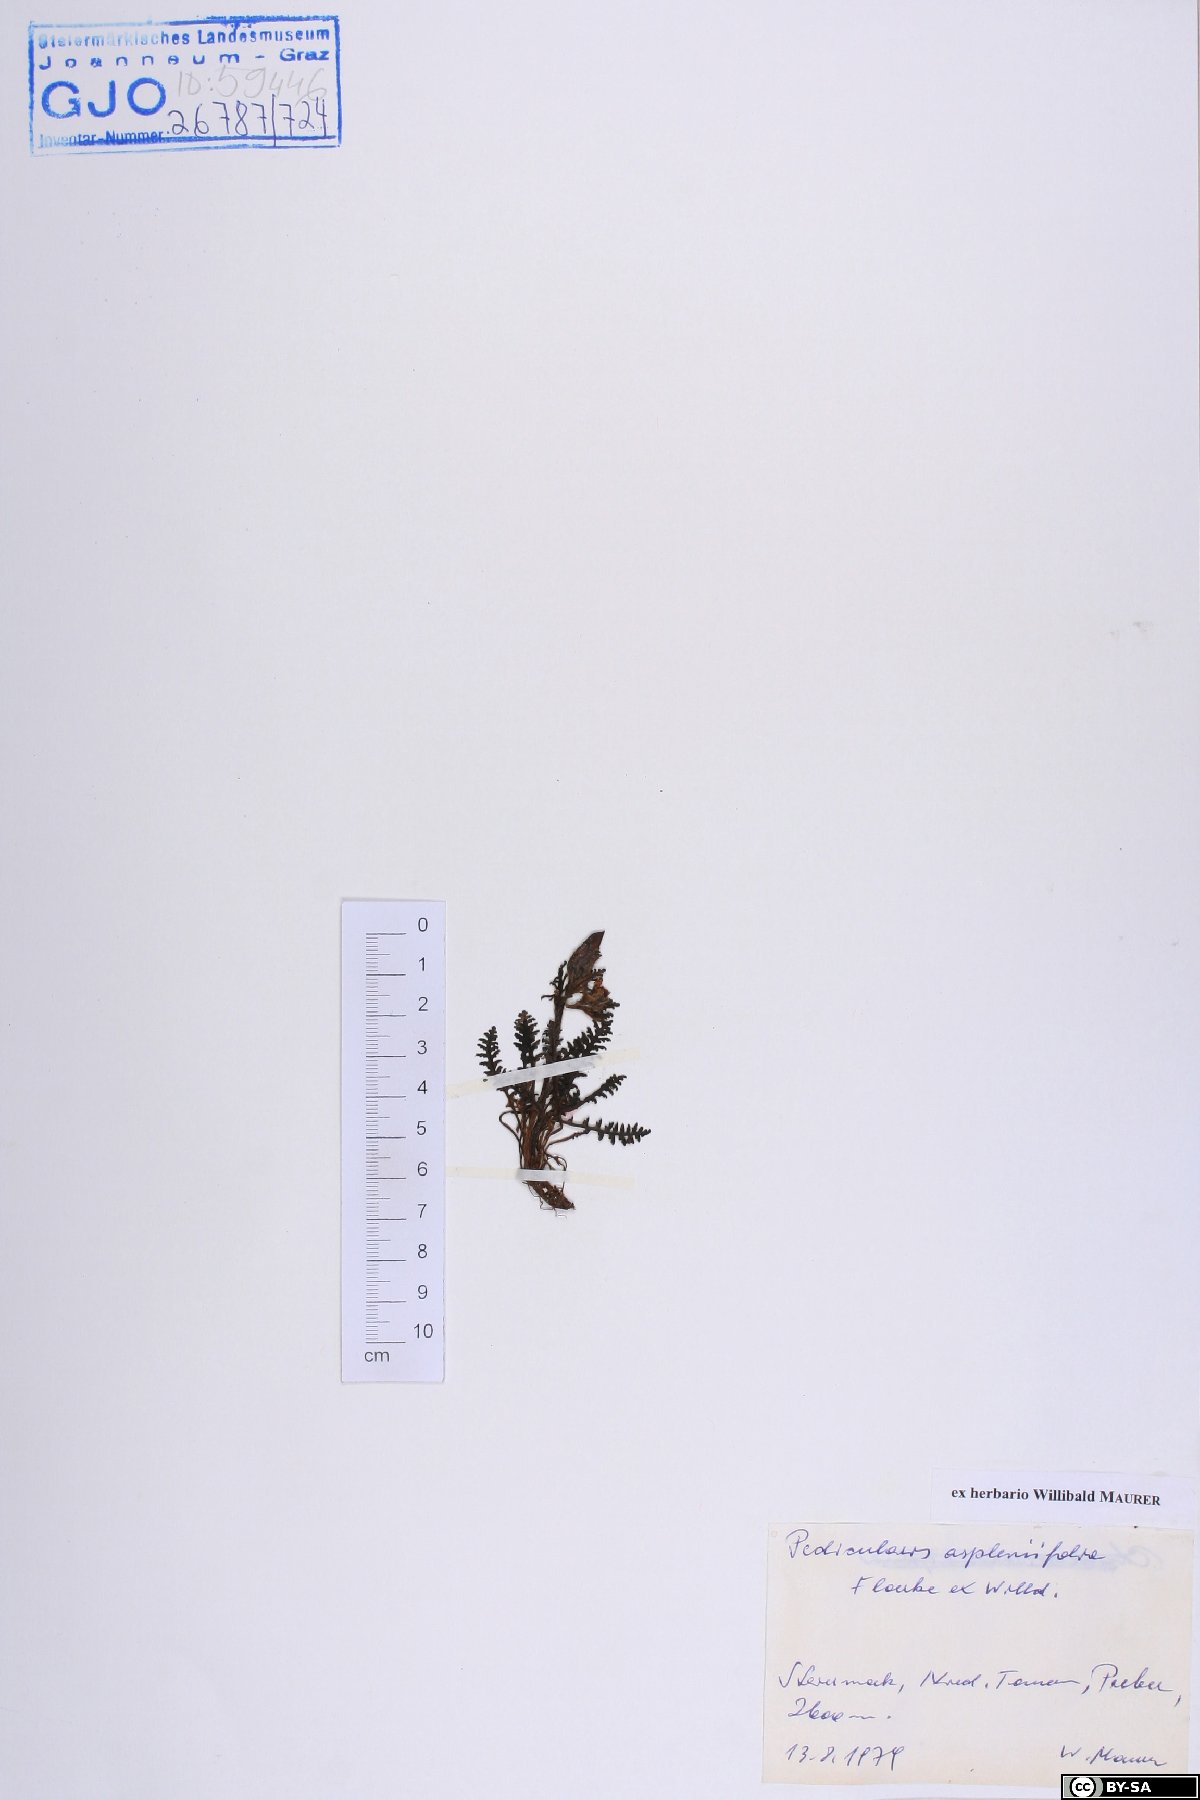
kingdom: Plantae
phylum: Tracheophyta
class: Magnoliopsida
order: Lamiales
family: Orobanchaceae
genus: Pedicularis
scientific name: Pedicularis asplenifolia
